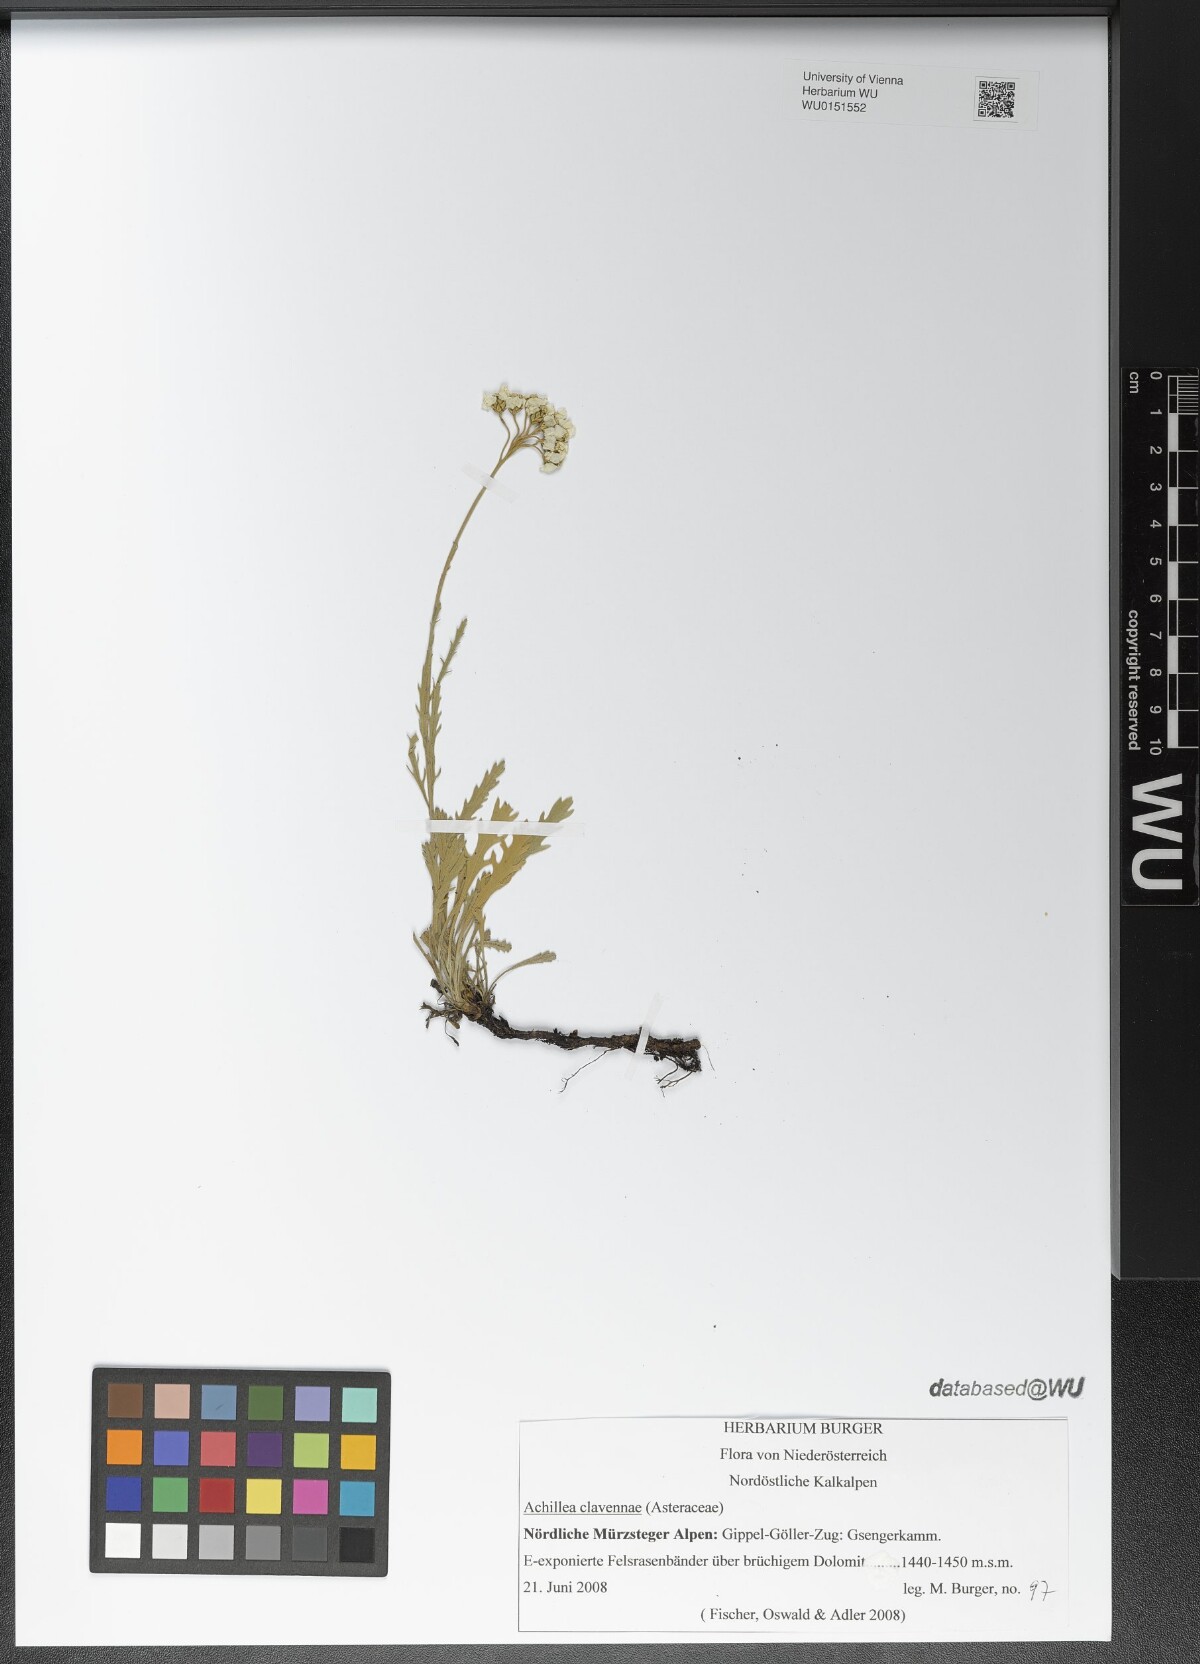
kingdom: Plantae
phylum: Tracheophyta
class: Magnoliopsida
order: Asterales
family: Asteraceae
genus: Achillea
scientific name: Achillea clavennae
